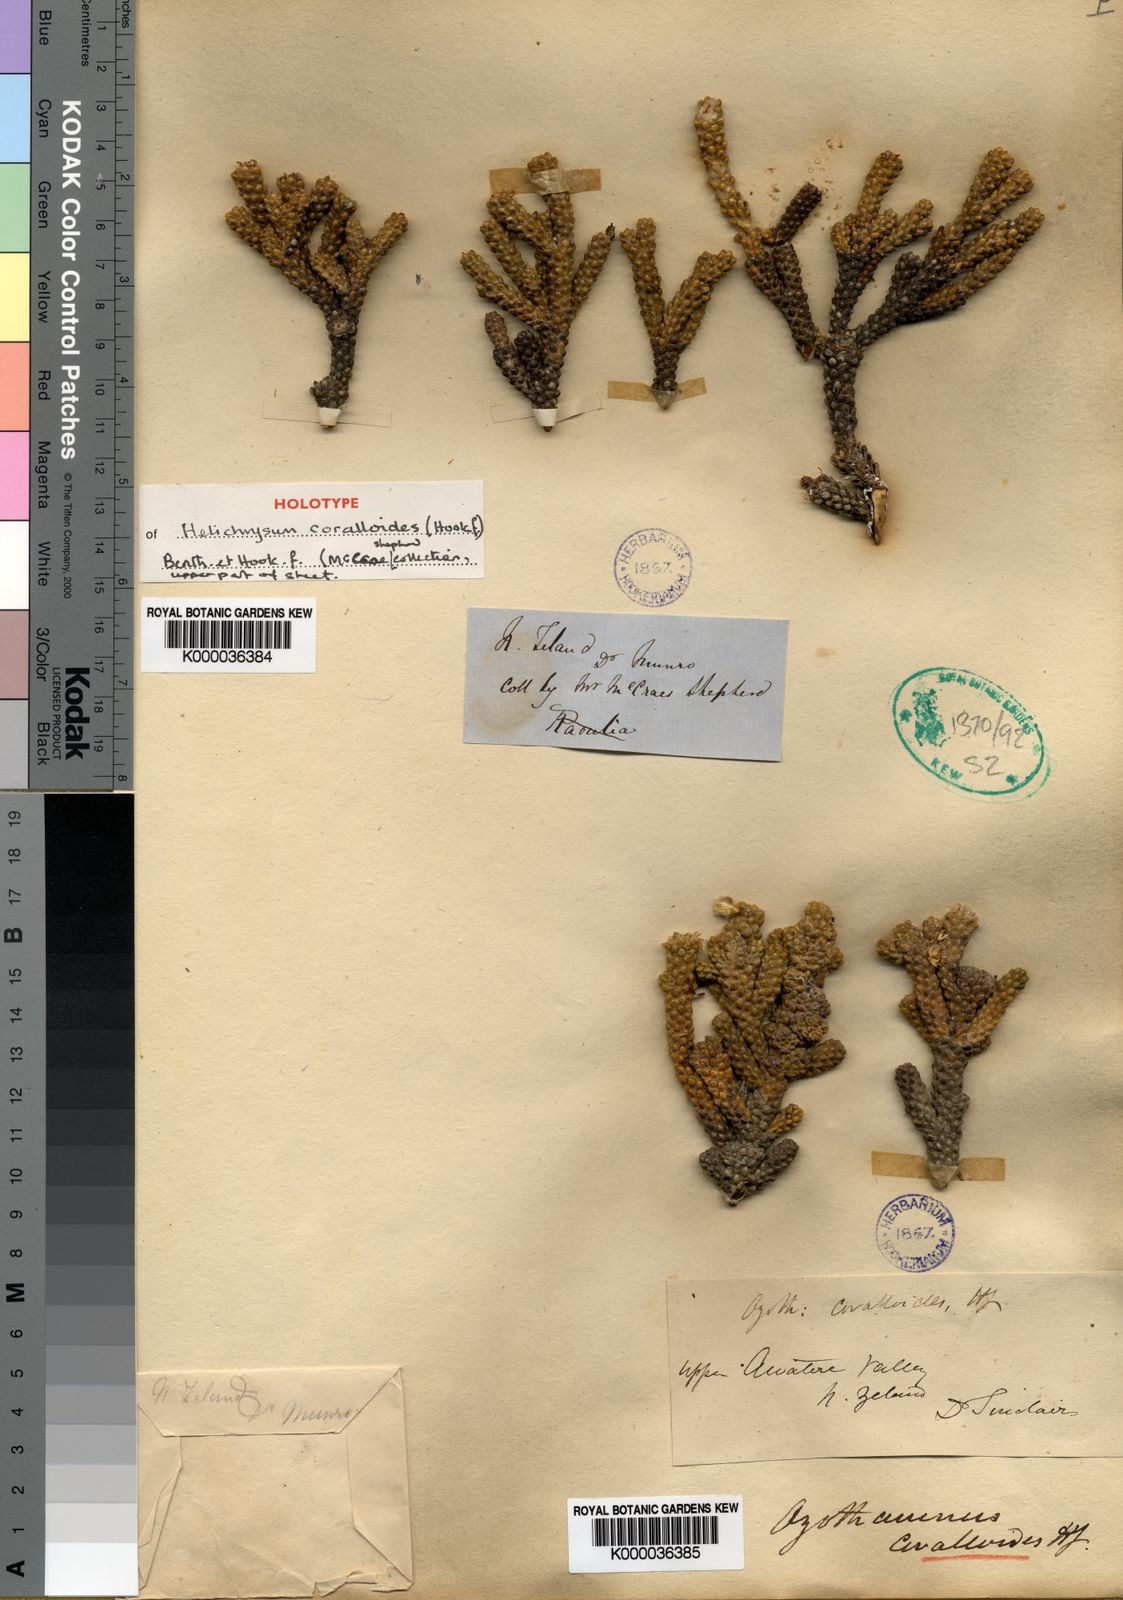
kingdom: Plantae
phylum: Tracheophyta
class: Magnoliopsida
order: Asterales
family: Asteraceae
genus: Ozothamnus
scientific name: Ozothamnus coralloides
